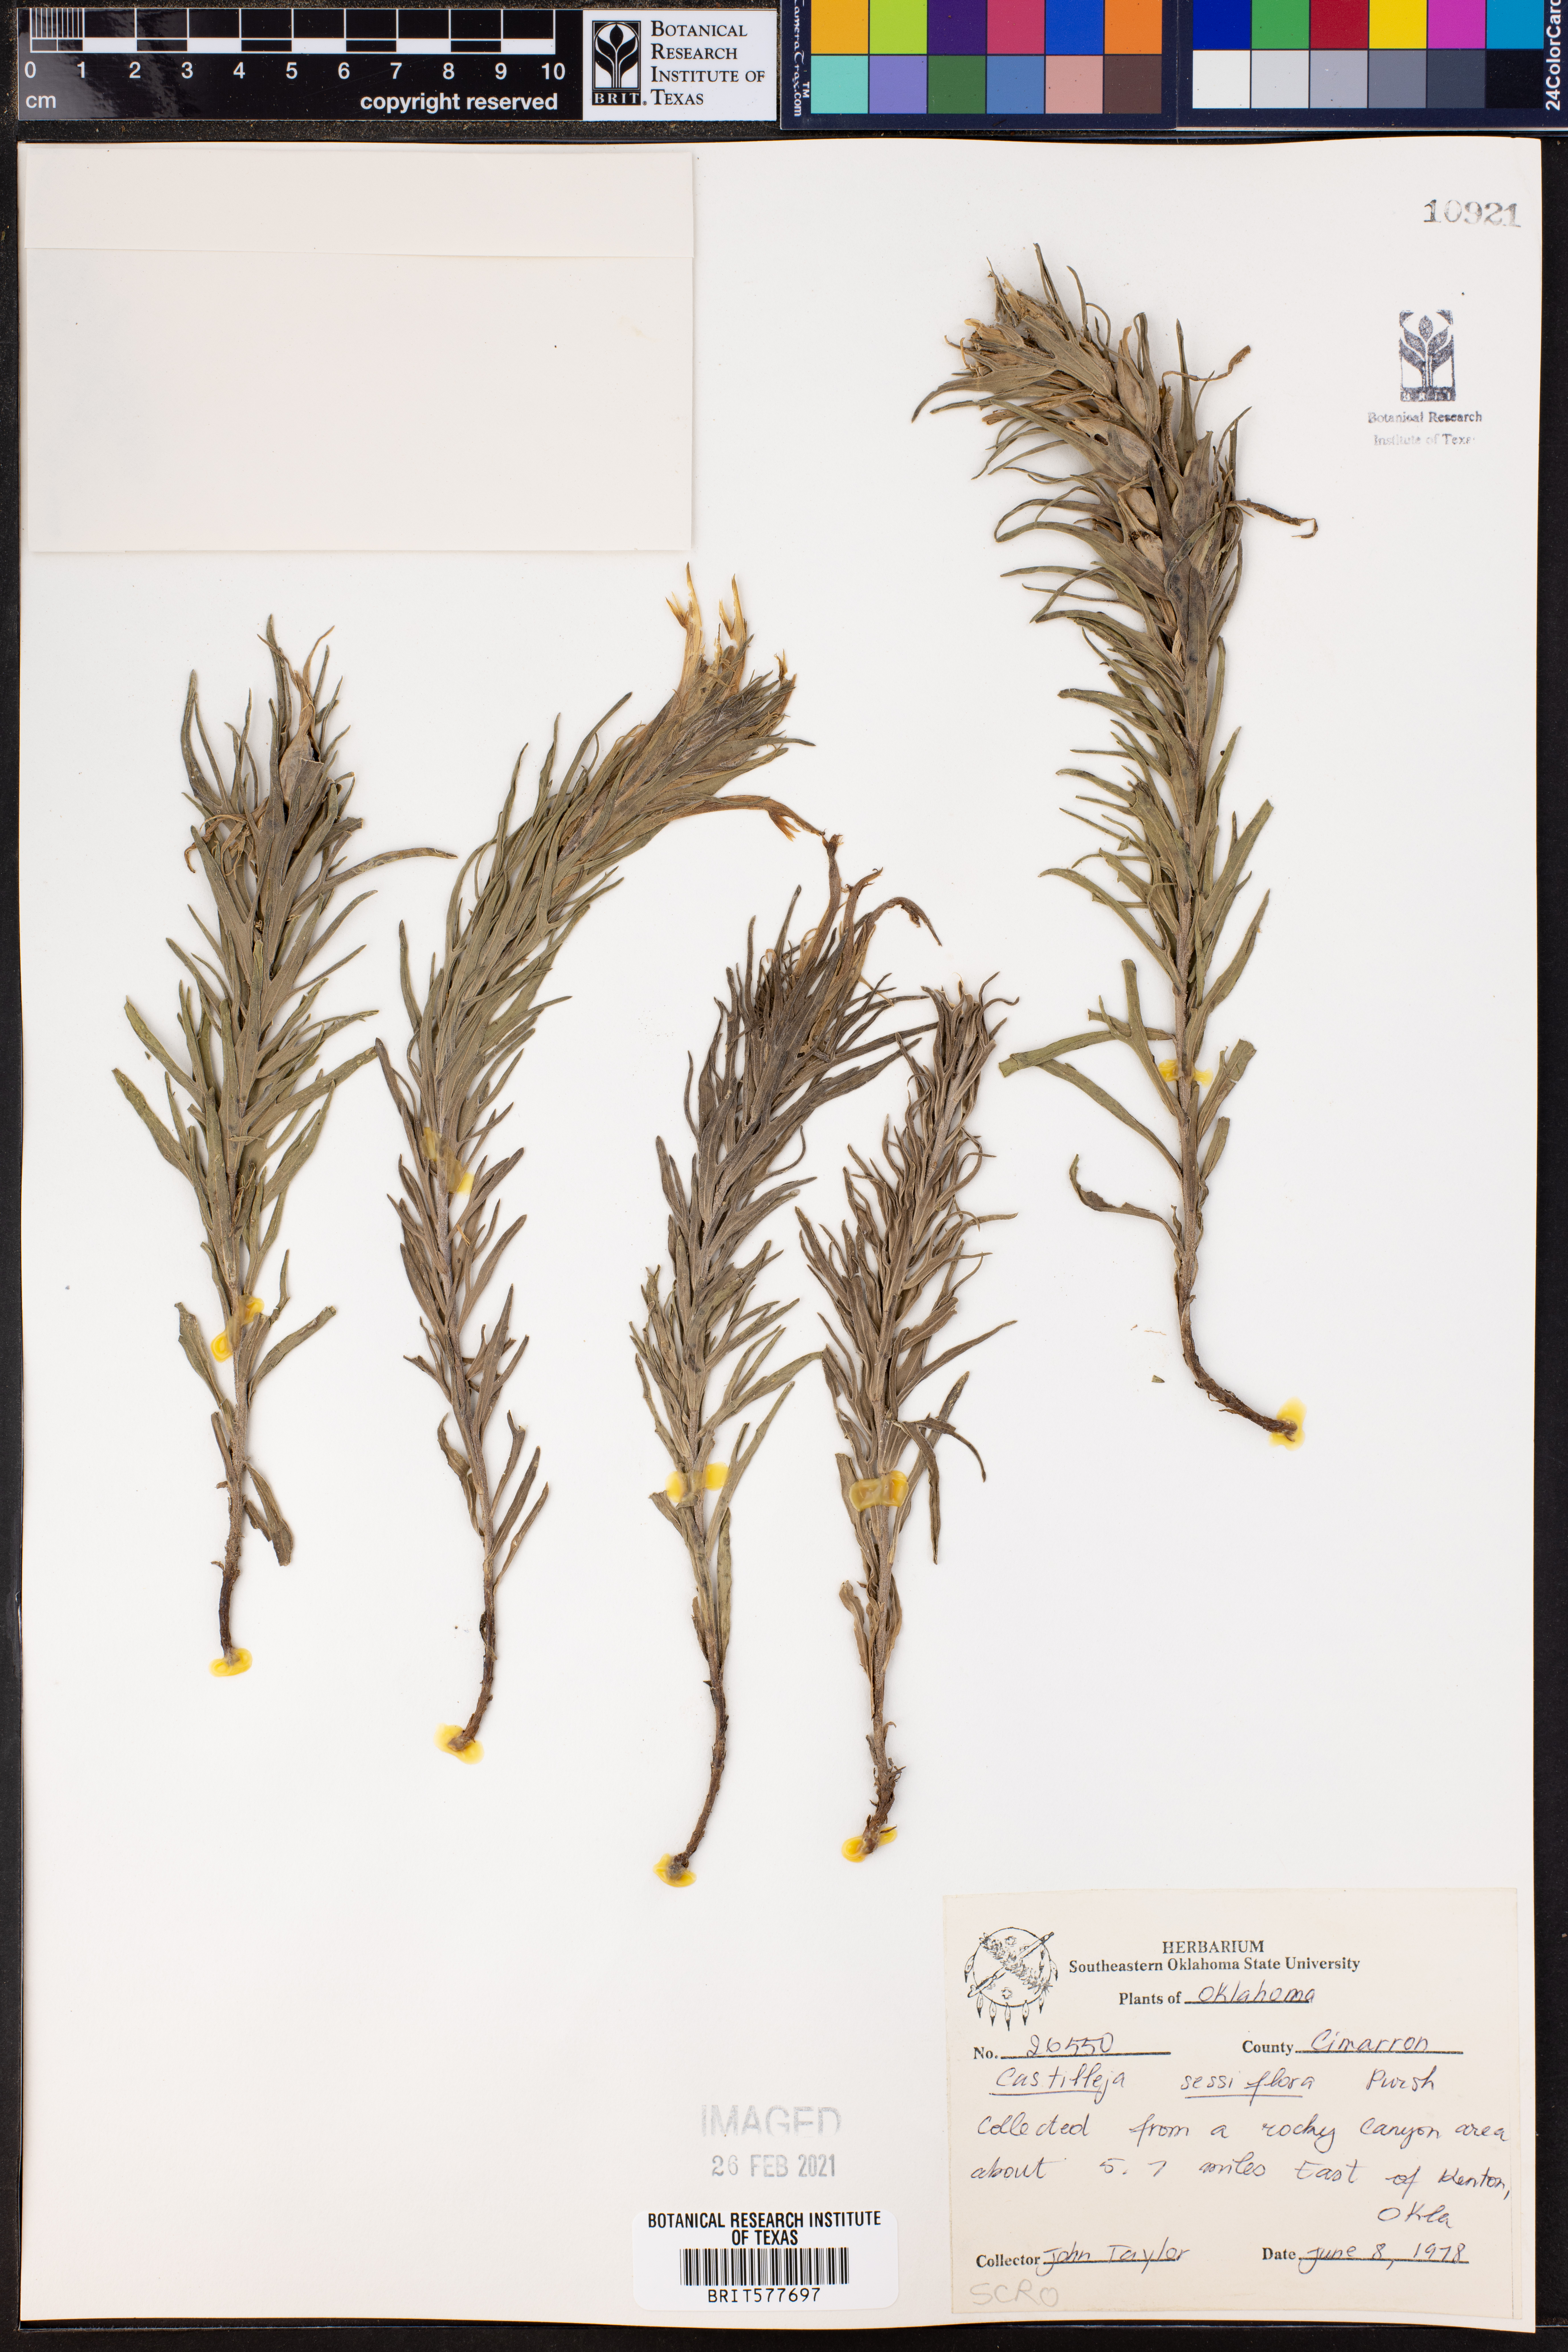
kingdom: Plantae
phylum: Tracheophyta
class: Magnoliopsida
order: Lamiales
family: Orobanchaceae
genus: Castilleja
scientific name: Castilleja sessiliflora
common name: Downy paintbrush
